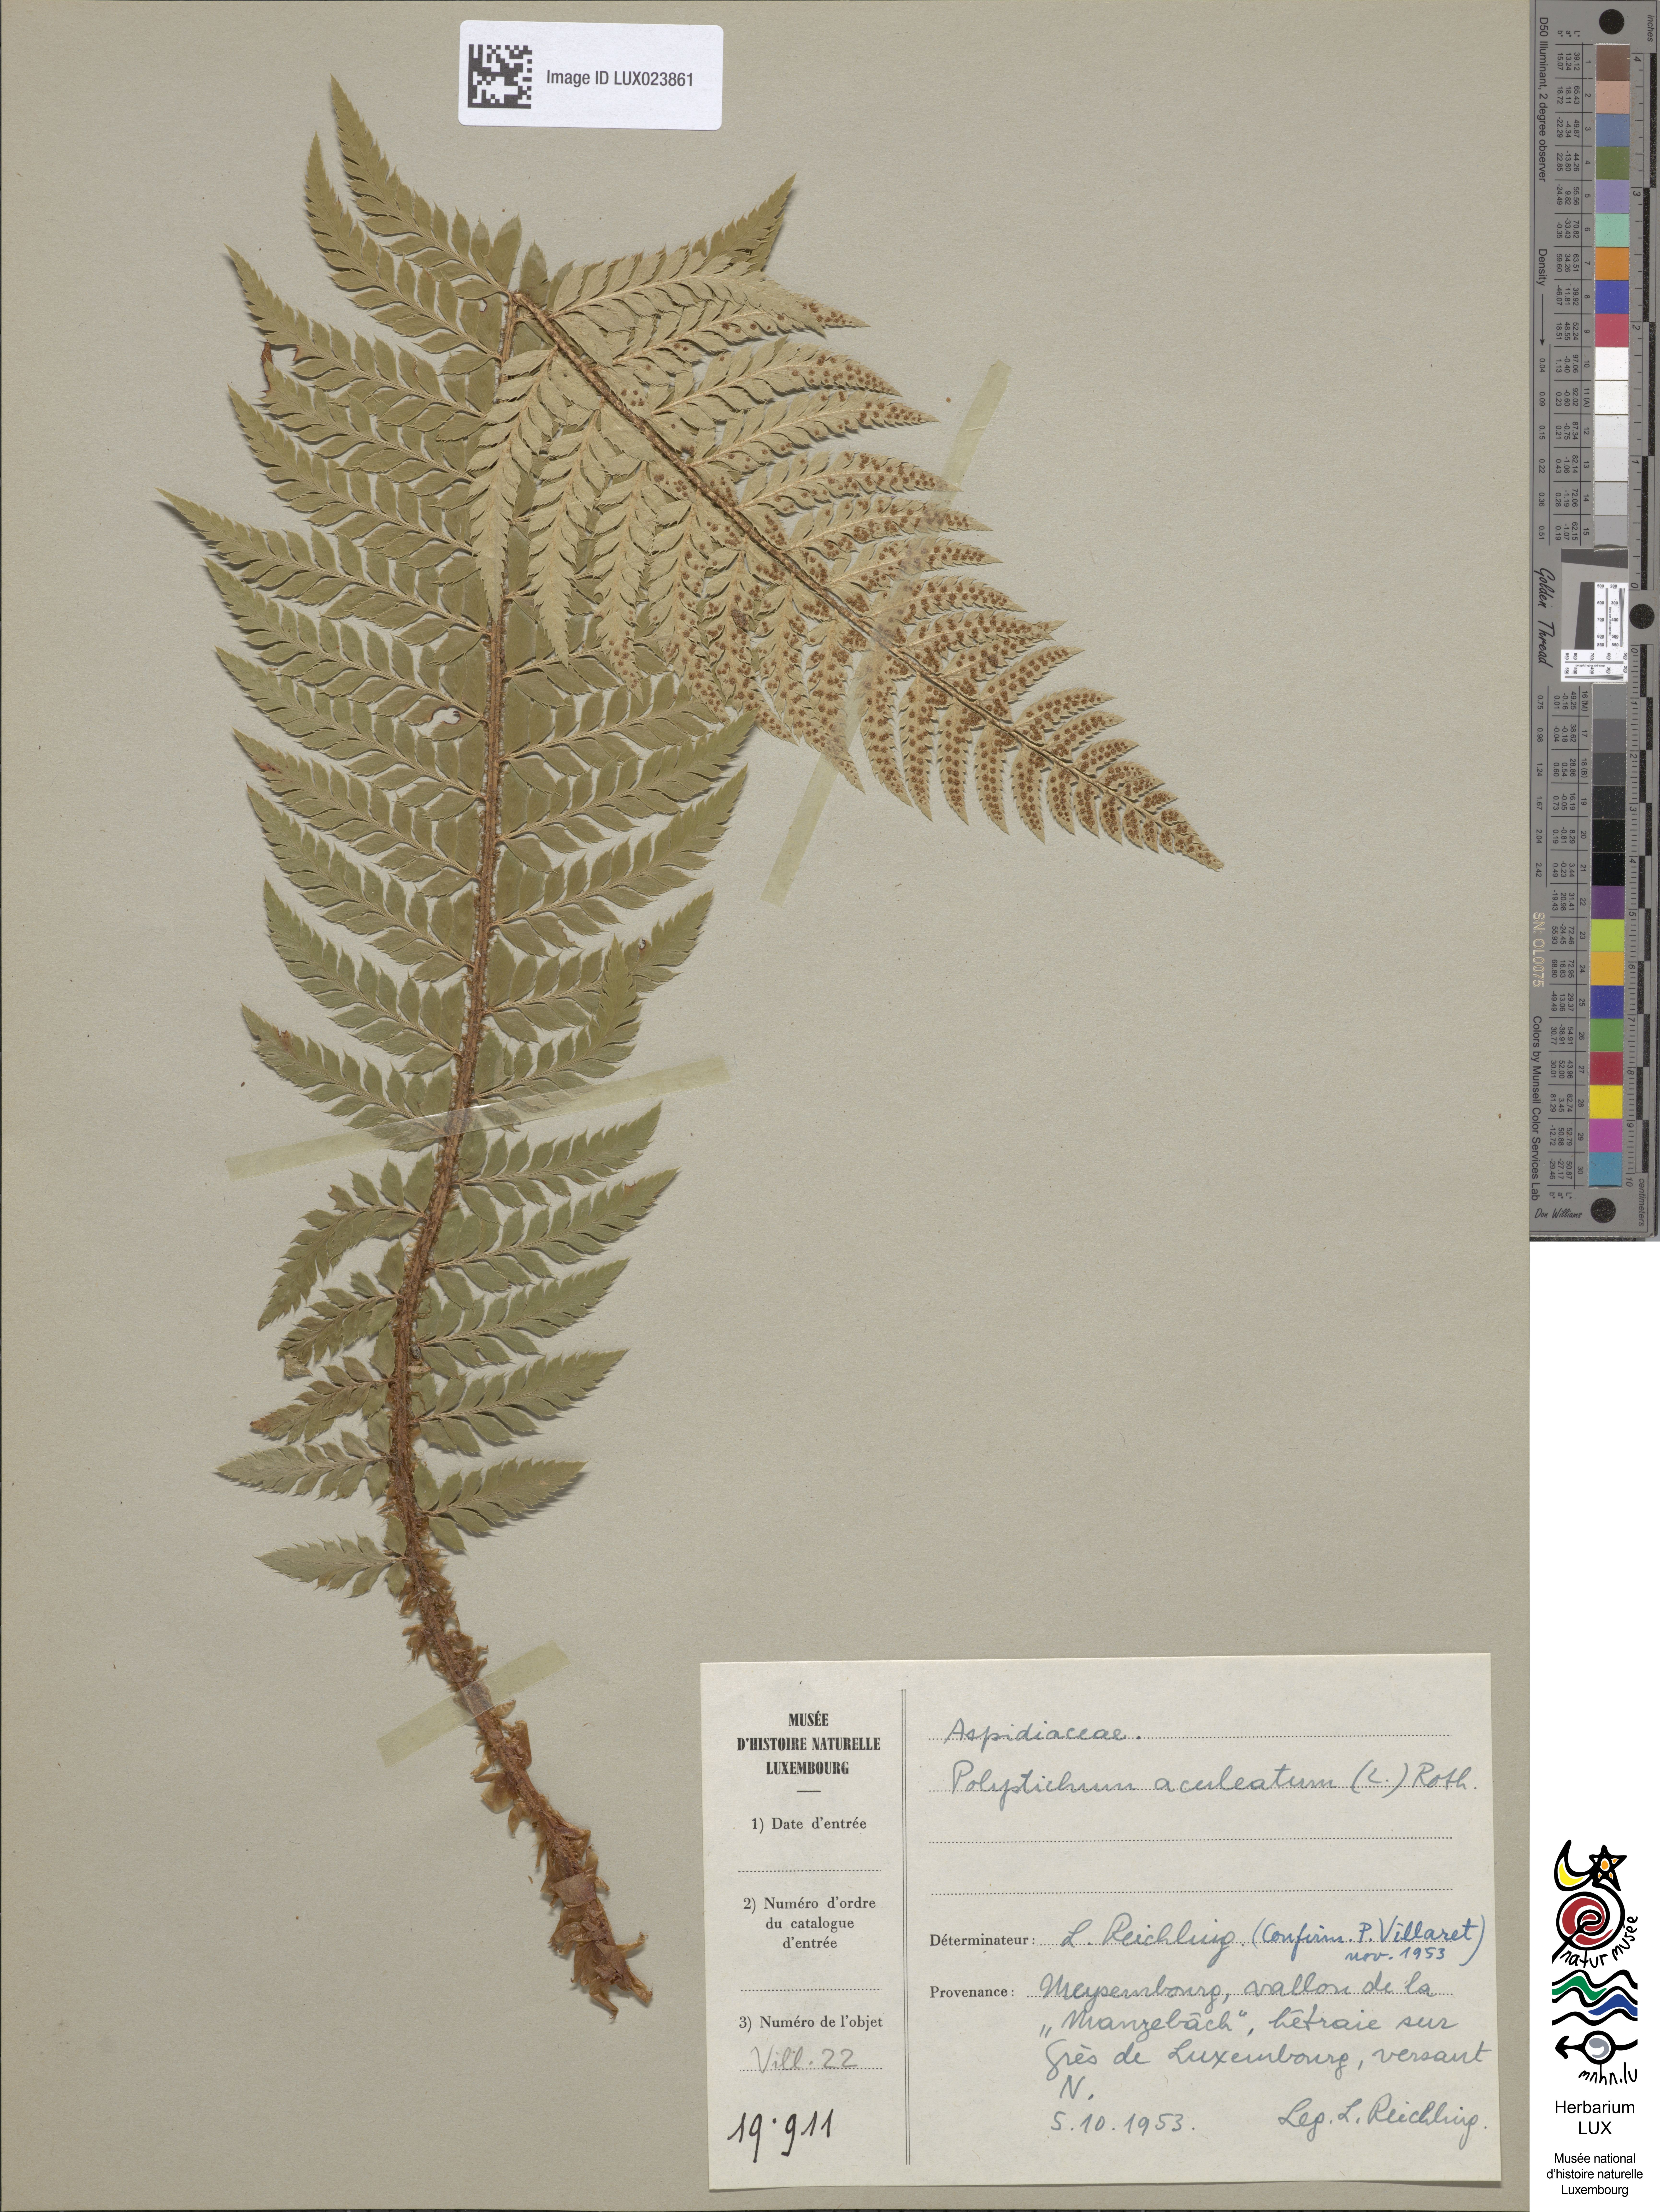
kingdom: Plantae
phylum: Tracheophyta
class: Polypodiopsida
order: Polypodiales
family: Dryopteridaceae
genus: Polystichum
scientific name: Polystichum aculeatum
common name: Hard shield-fern
